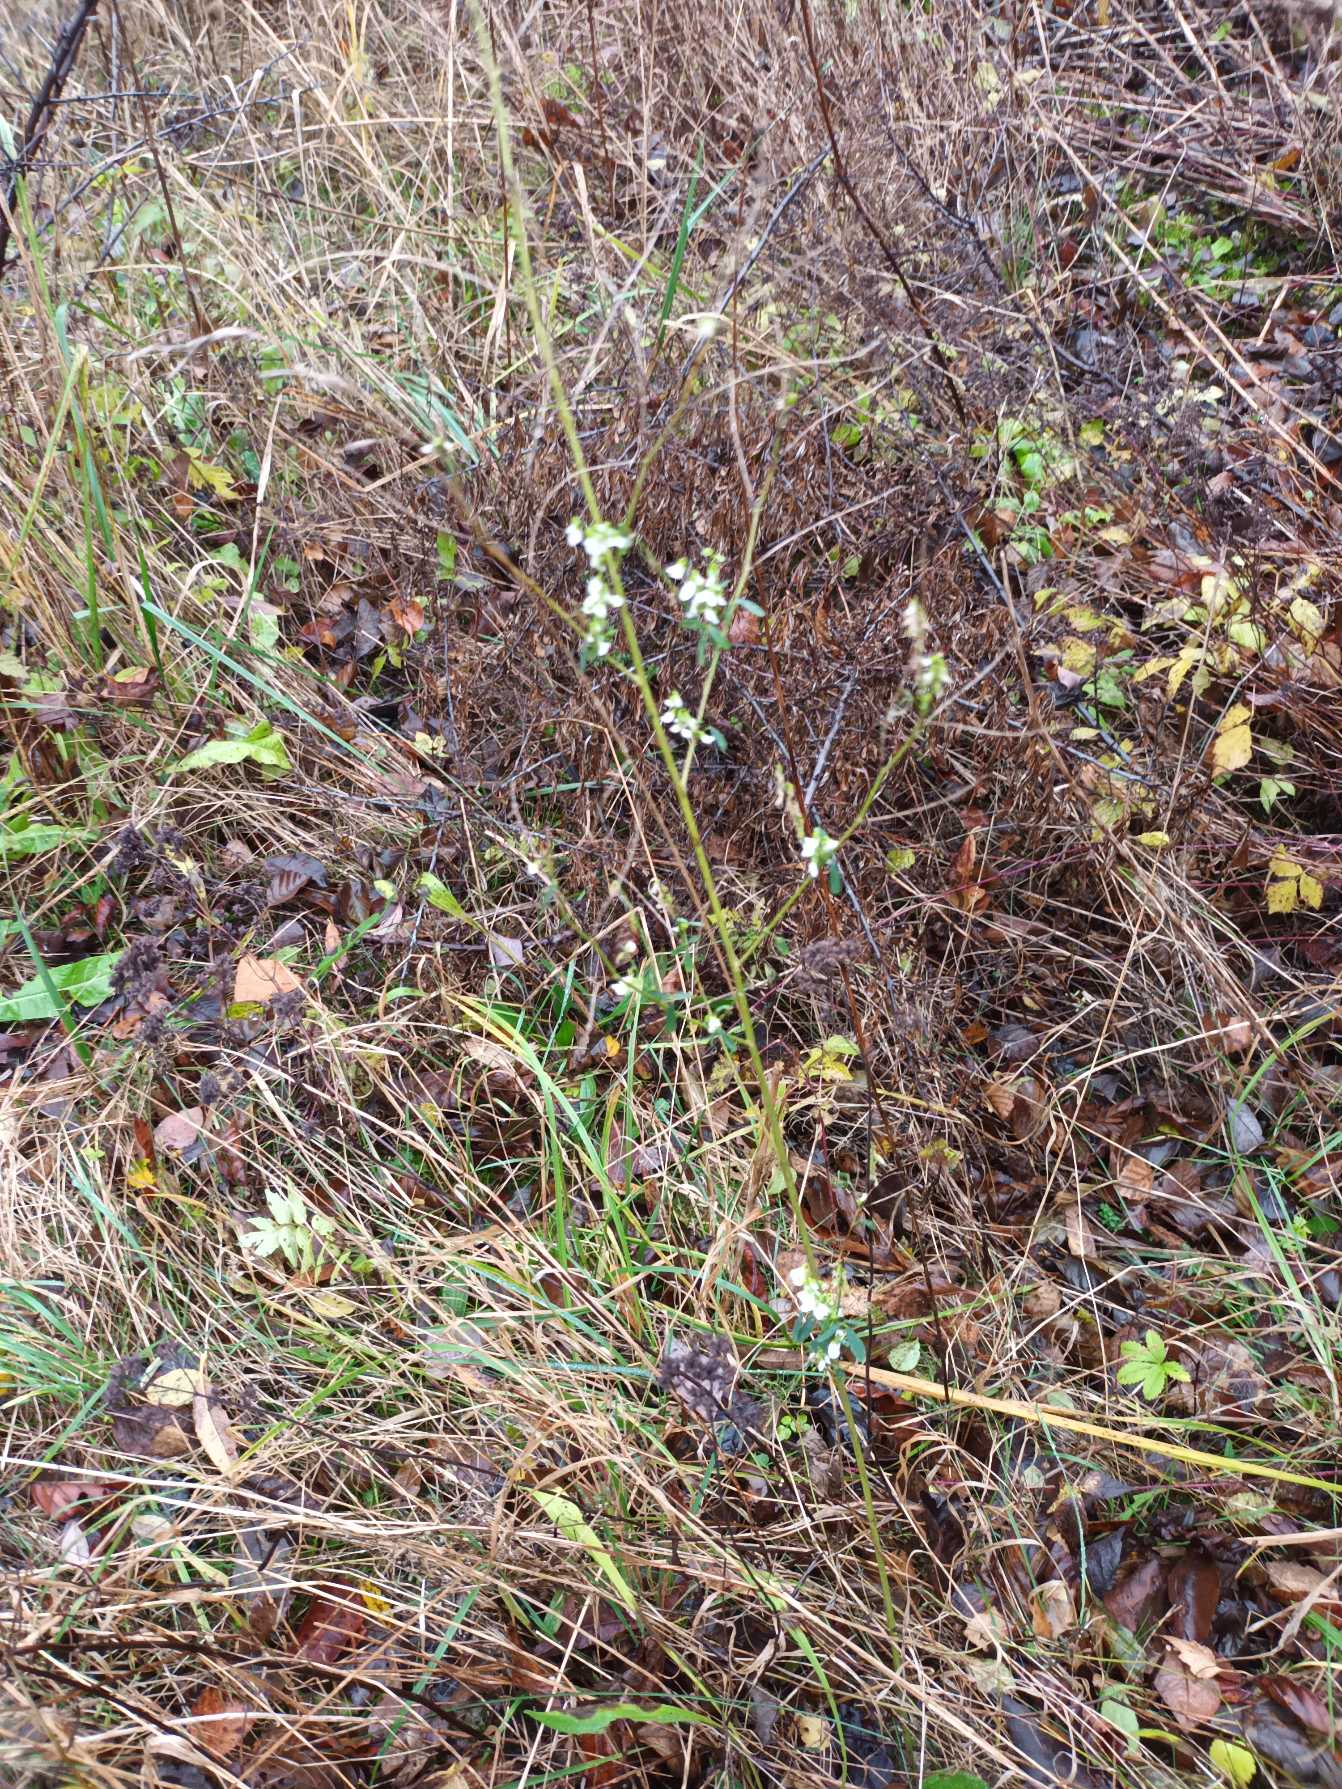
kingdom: Plantae
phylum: Tracheophyta
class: Magnoliopsida
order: Fabales
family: Fabaceae
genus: Melilotus
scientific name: Melilotus albus
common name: Hvid stenkløver
